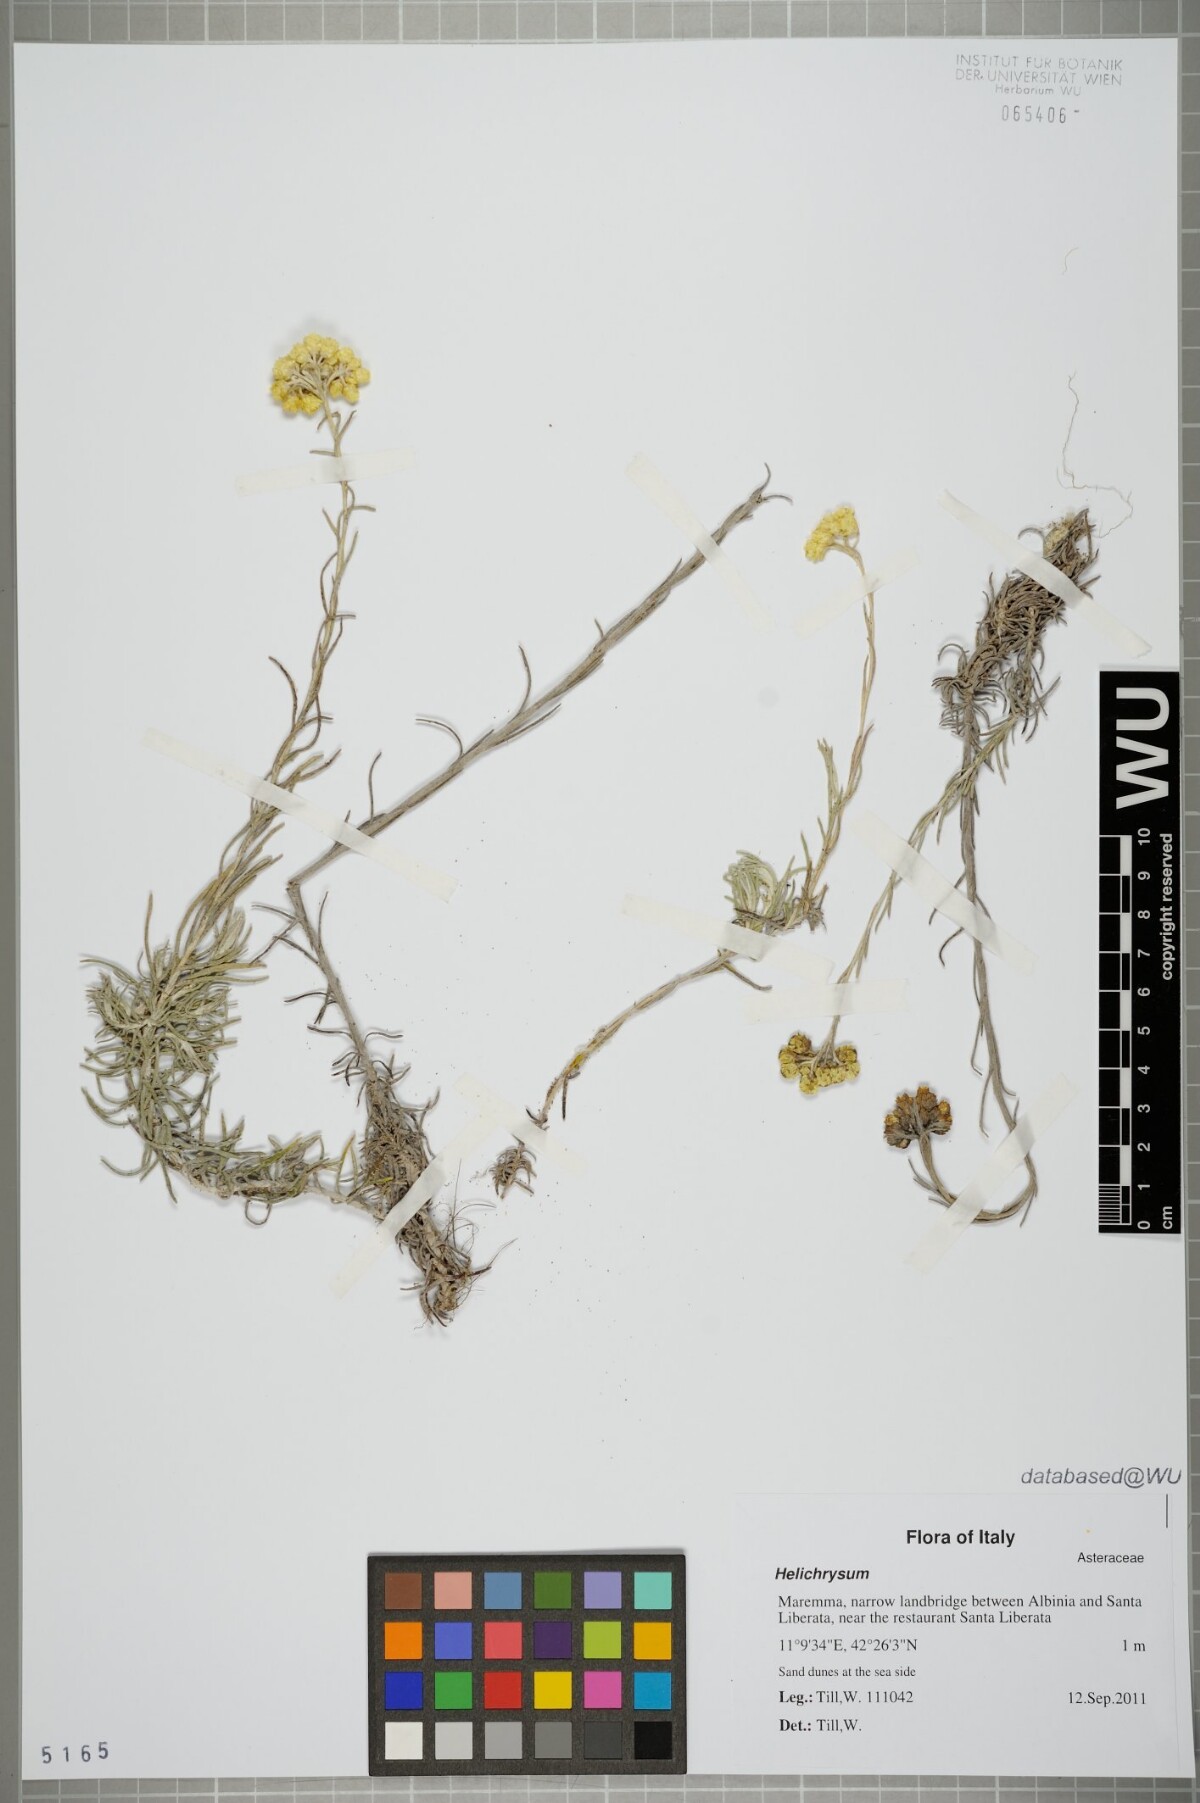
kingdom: Plantae
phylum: Tracheophyta
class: Magnoliopsida
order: Asterales
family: Asteraceae
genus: Helichrysum
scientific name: Helichrysum
